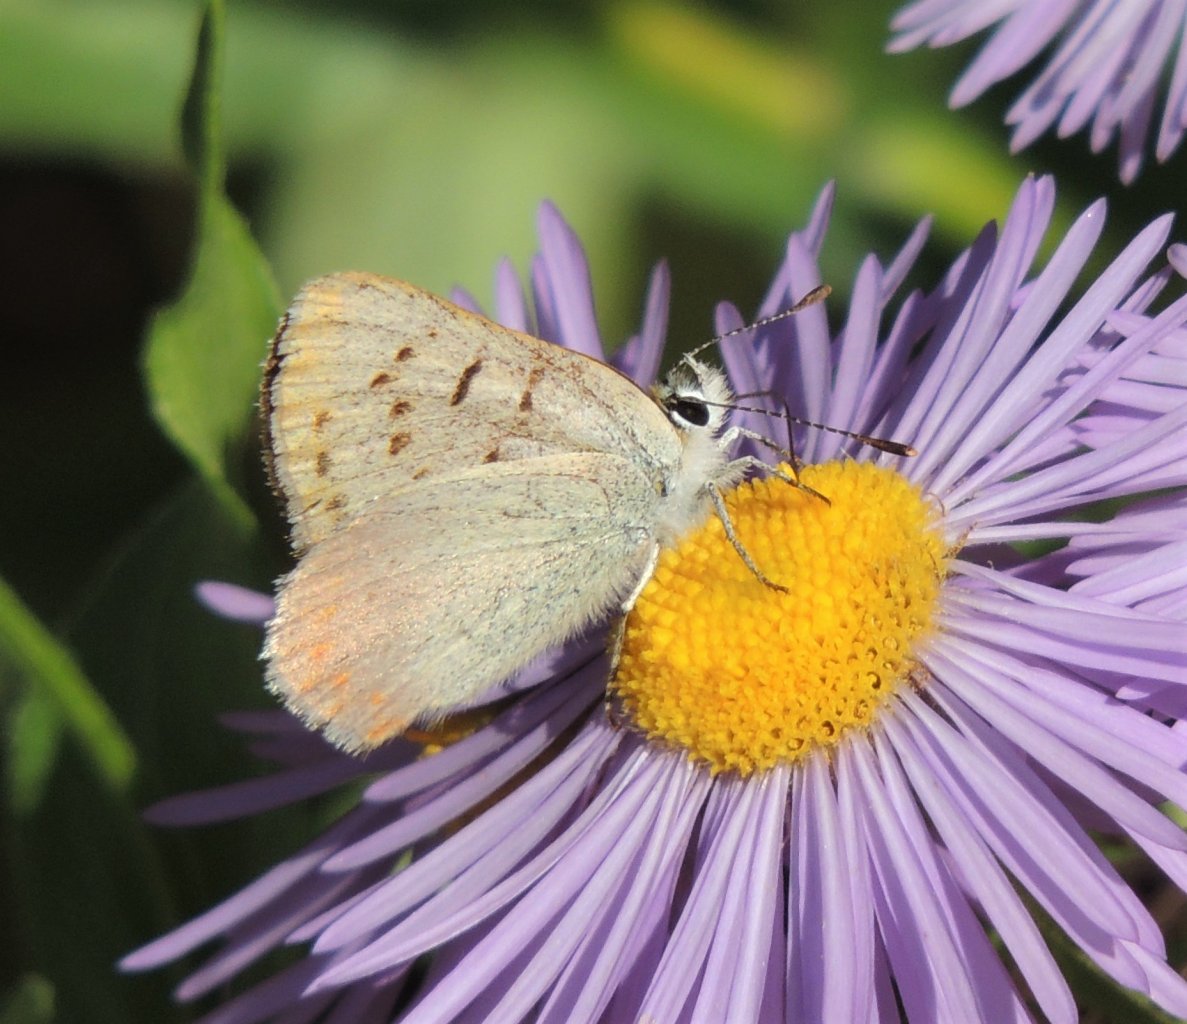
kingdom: Animalia
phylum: Arthropoda
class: Insecta
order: Lepidoptera
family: Sesiidae
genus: Sesia
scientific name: Sesia Lycaena helloides
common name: Purplish Copper
